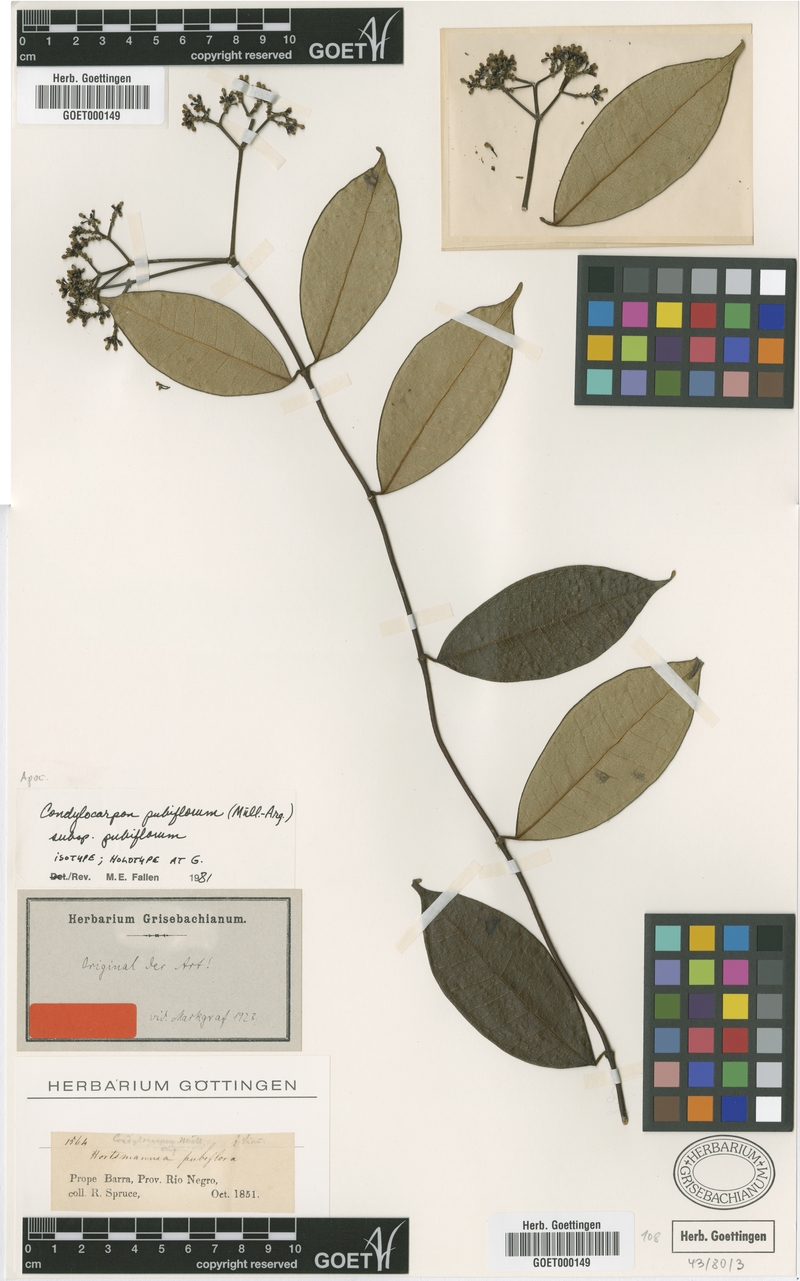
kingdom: Plantae
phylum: Tracheophyta
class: Magnoliopsida
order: Gentianales
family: Apocynaceae
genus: Condylocarpon
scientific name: Condylocarpon pubiflorum
